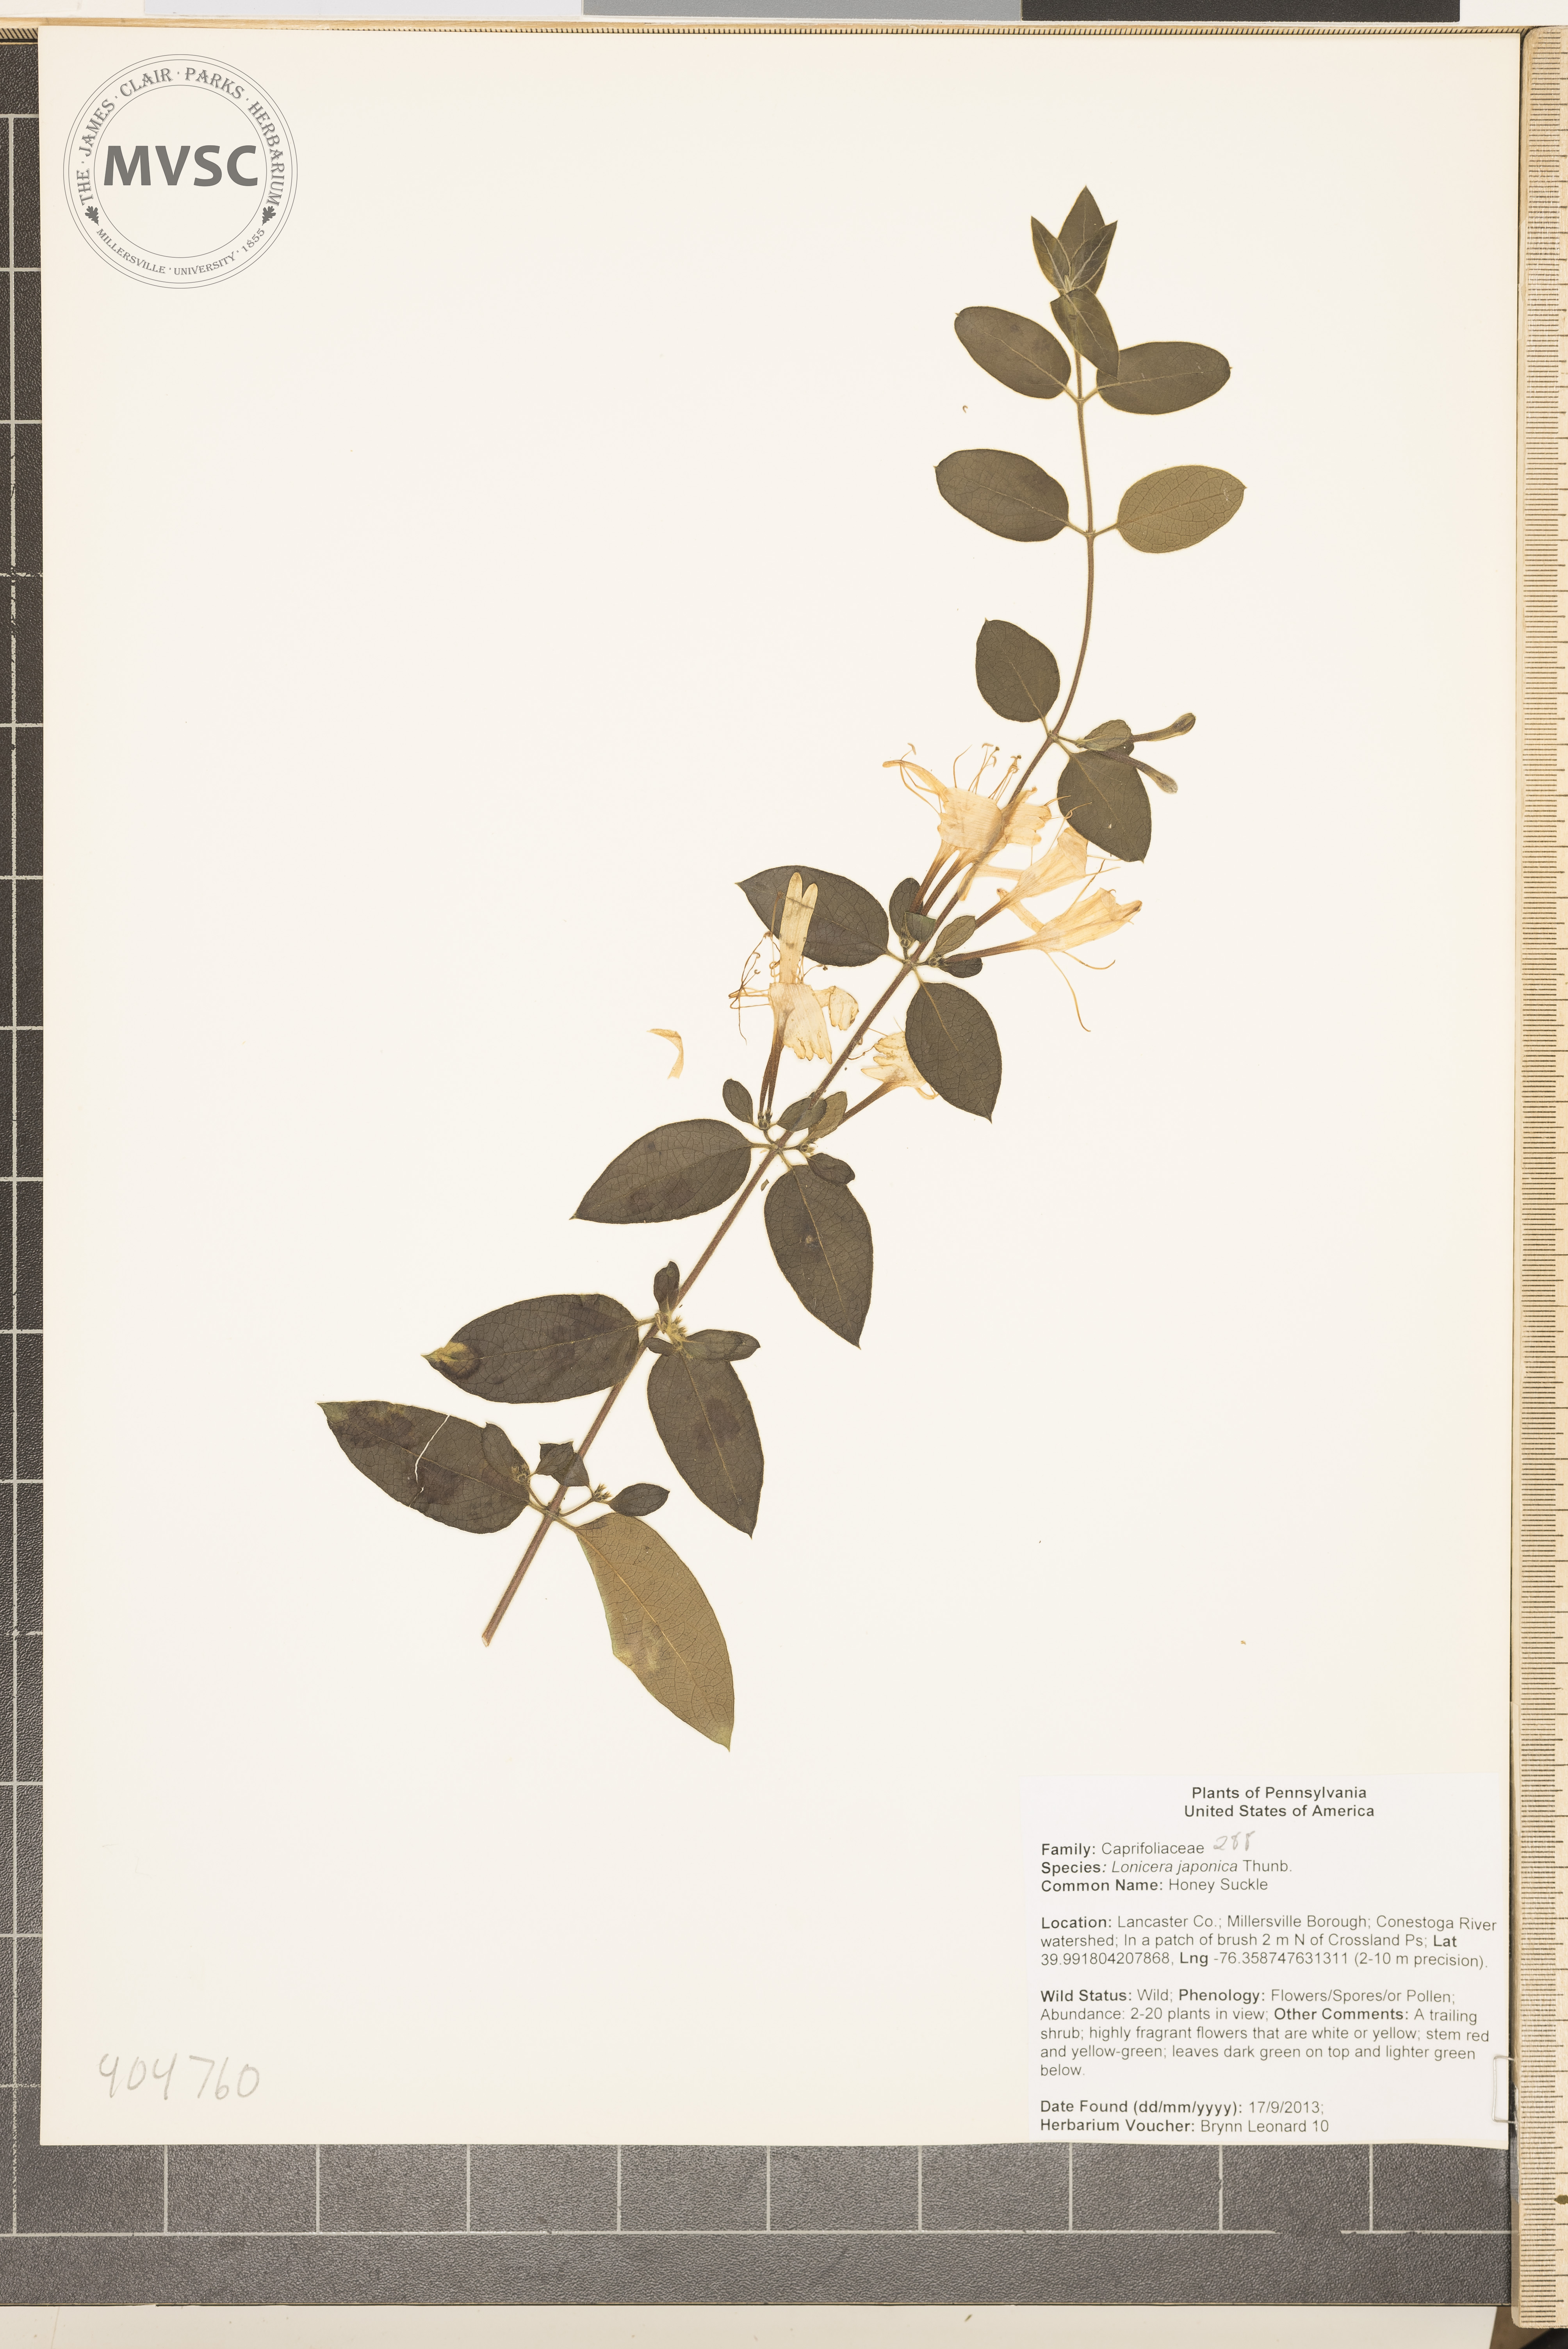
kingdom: Plantae
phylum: Tracheophyta
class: Magnoliopsida
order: Dipsacales
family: Caprifoliaceae
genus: Lonicera
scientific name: Lonicera japonica
